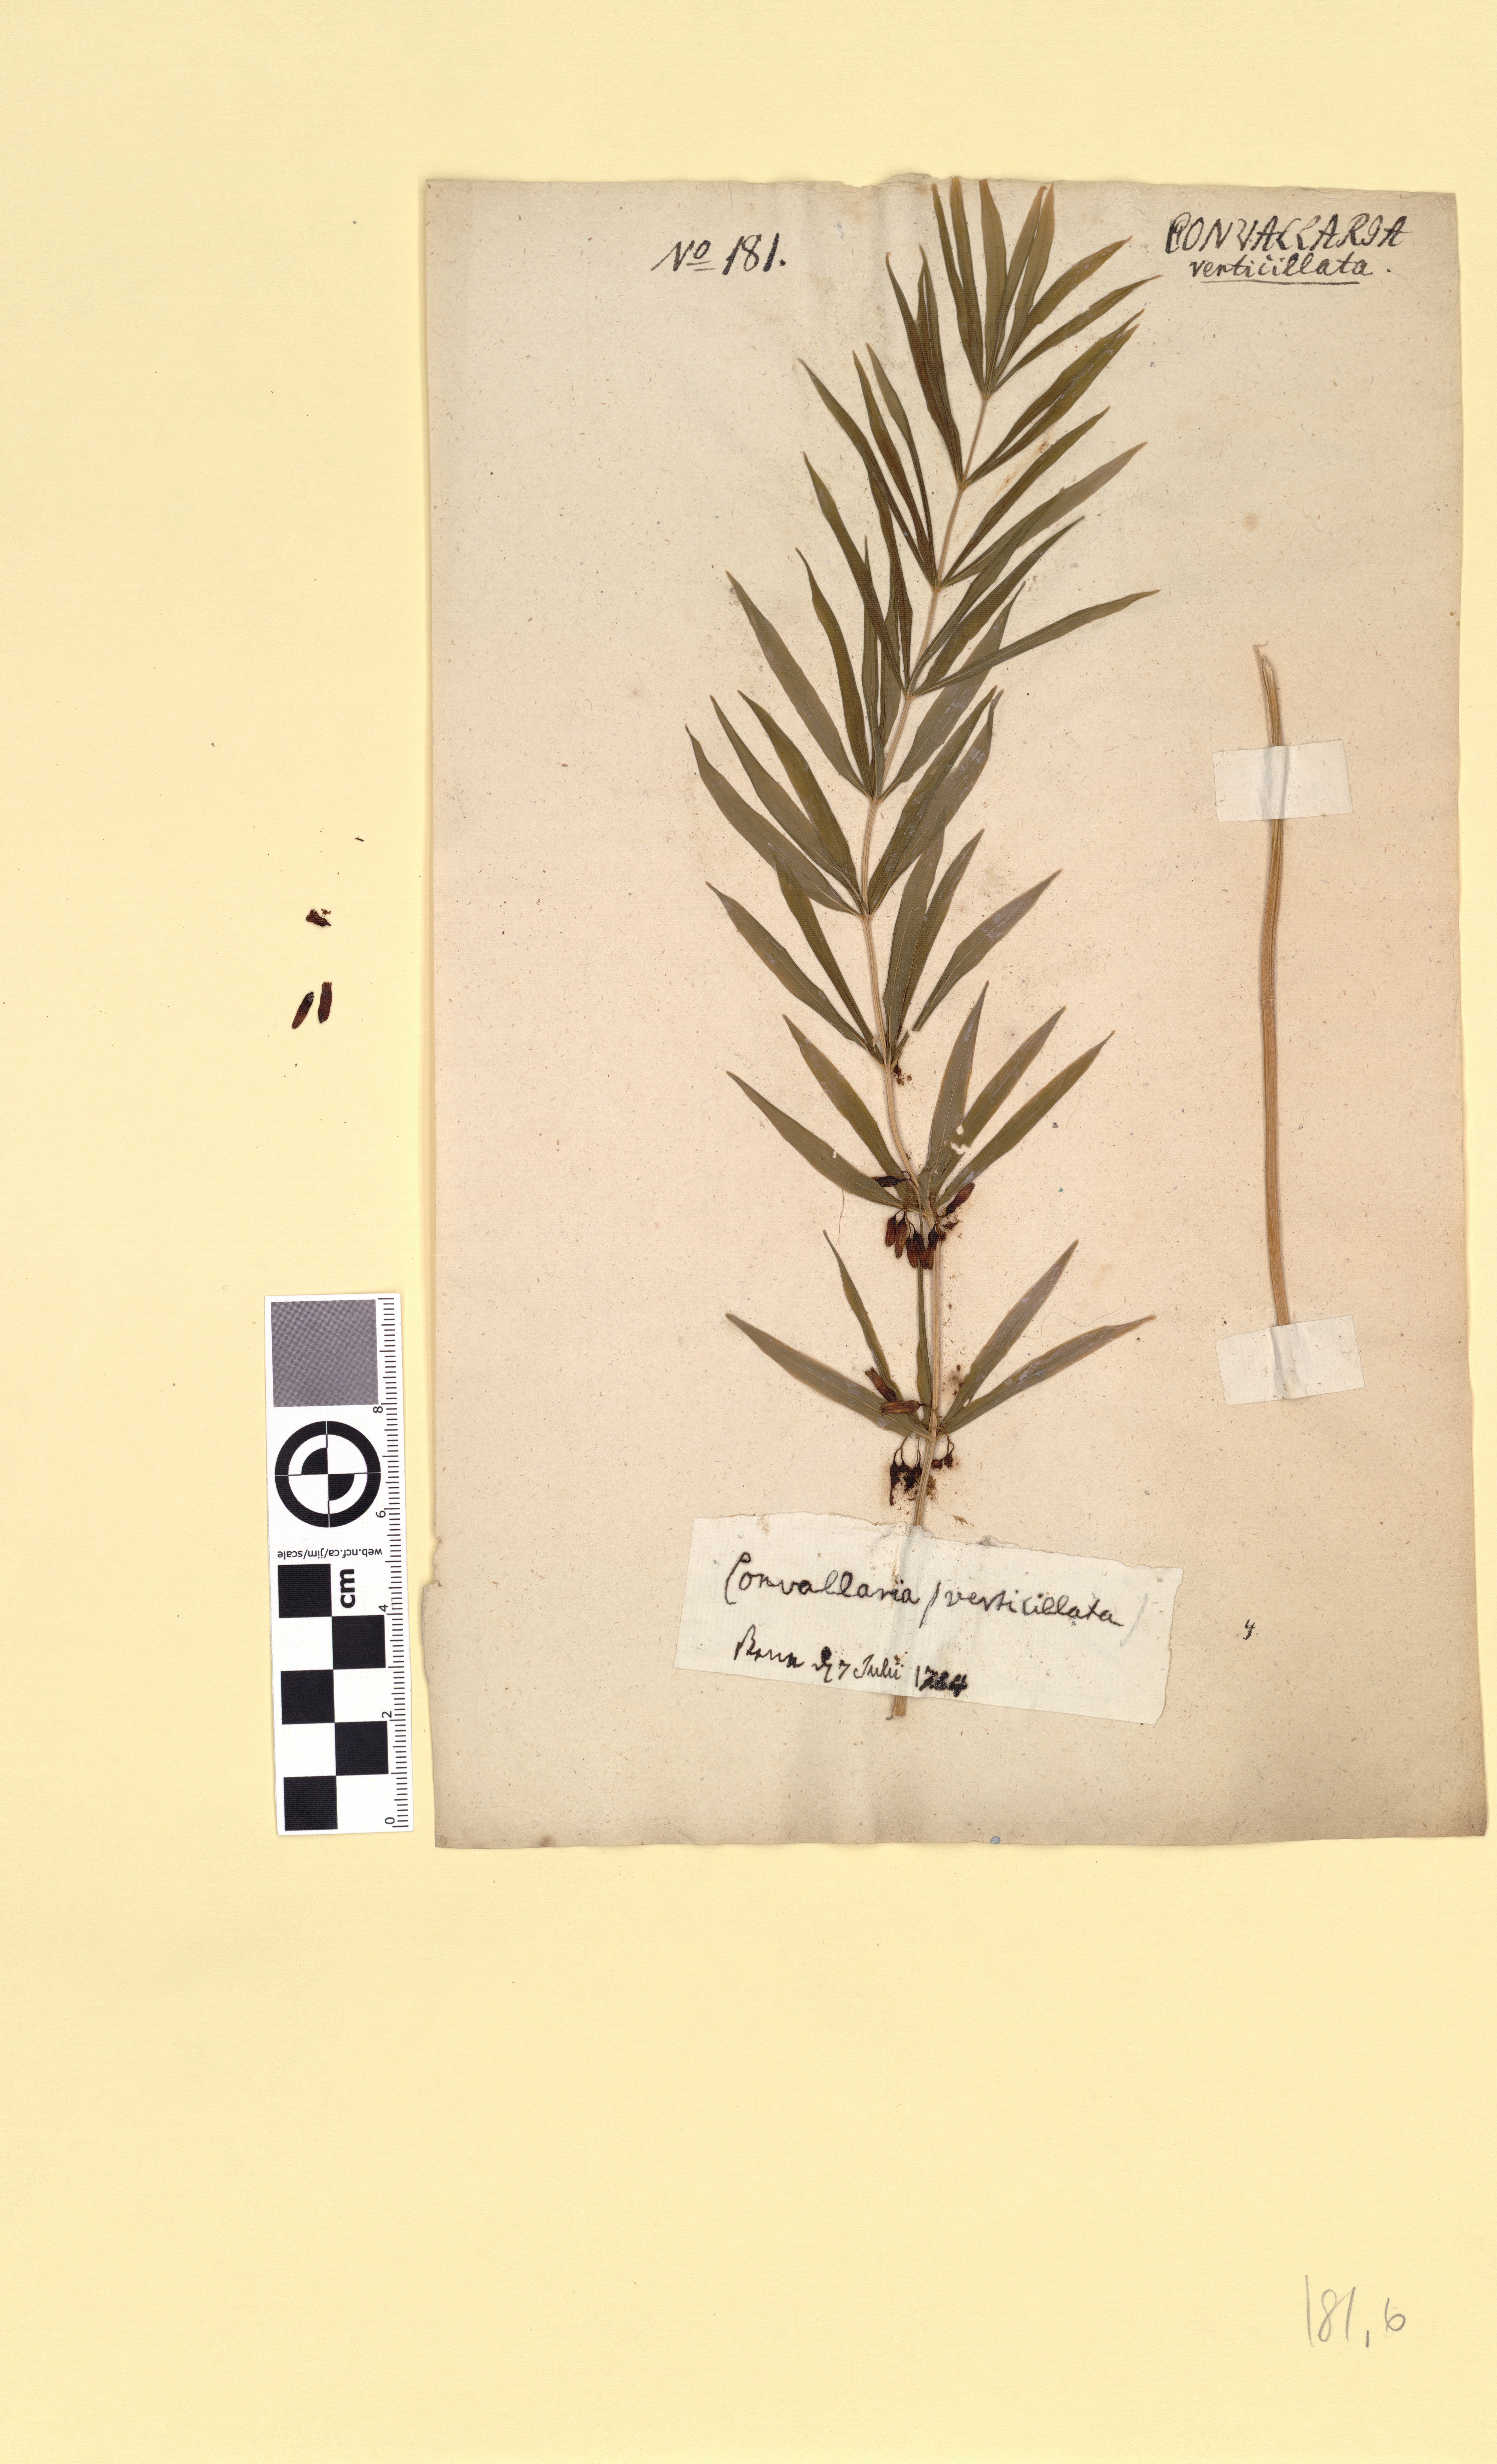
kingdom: Plantae
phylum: Tracheophyta
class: Liliopsida
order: Asparagales
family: Asparagaceae
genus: Polygonatum
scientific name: Polygonatum verticillatum
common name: Whorled solomon's-seal
